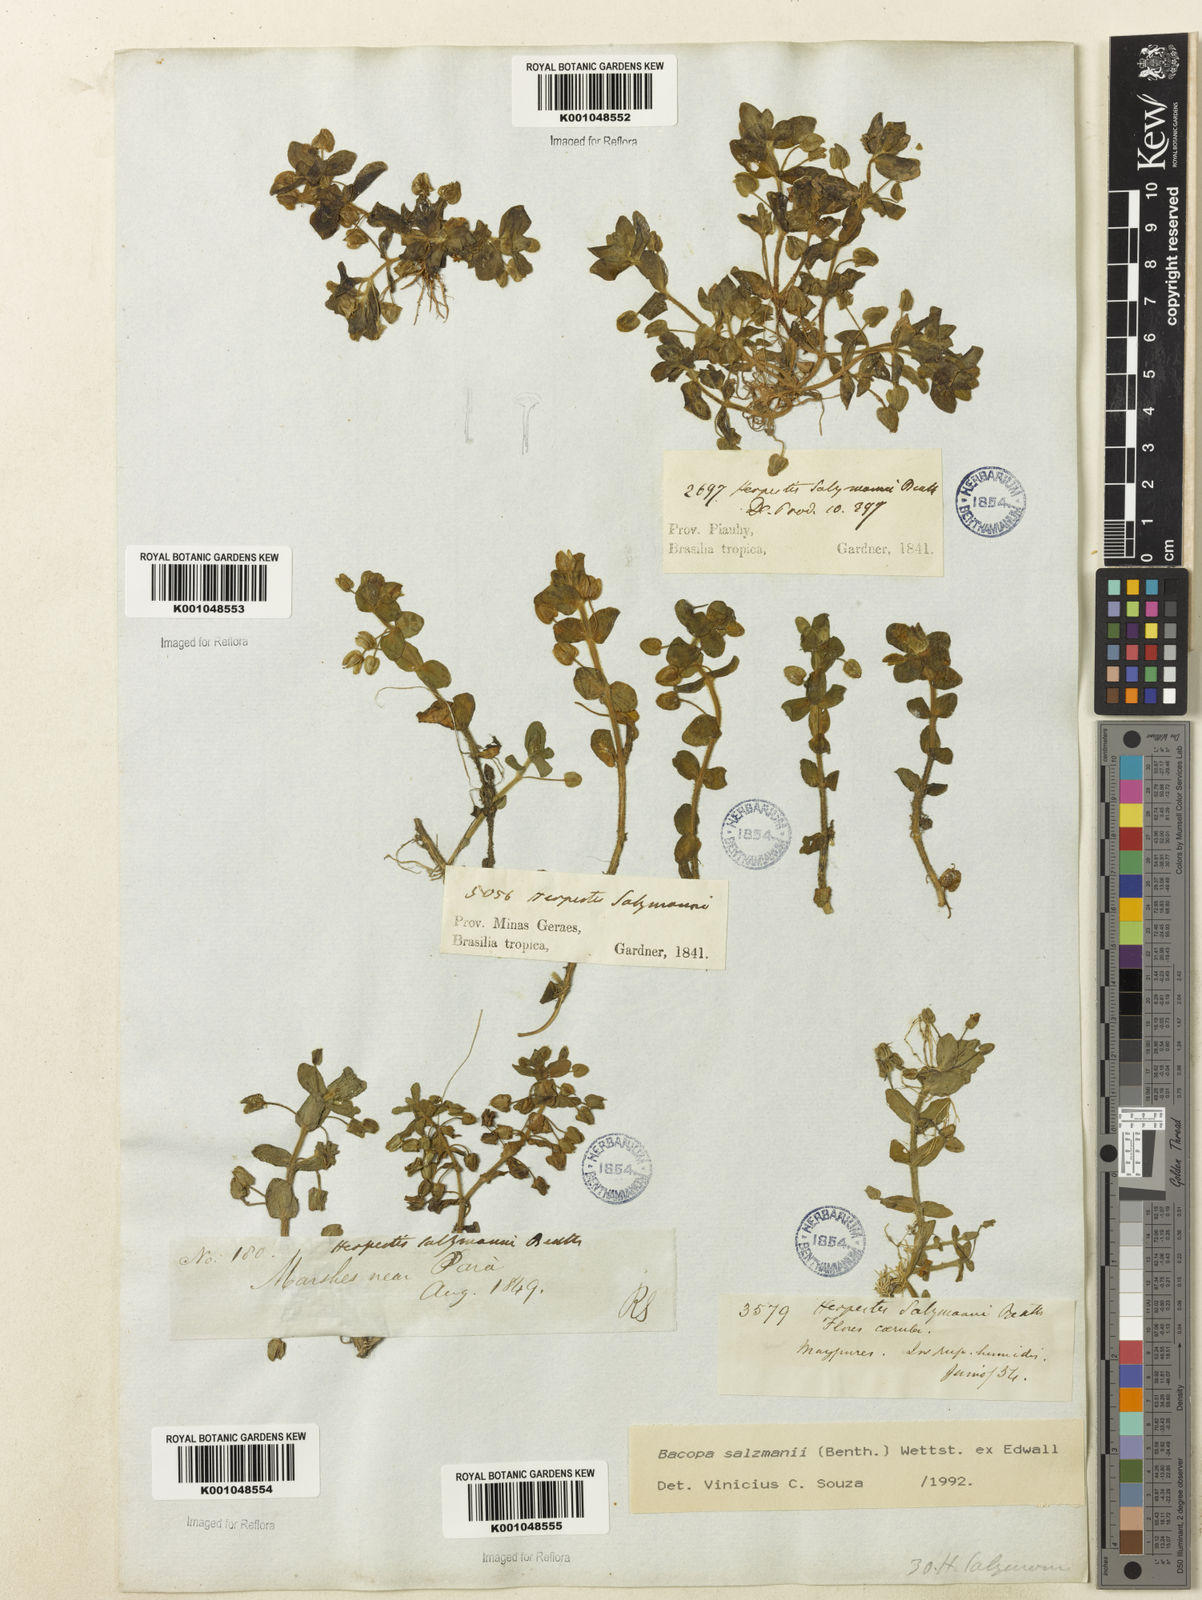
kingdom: Plantae
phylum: Tracheophyta
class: Magnoliopsida
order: Lamiales
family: Plantaginaceae
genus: Bacopa
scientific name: Bacopa salzmannii
